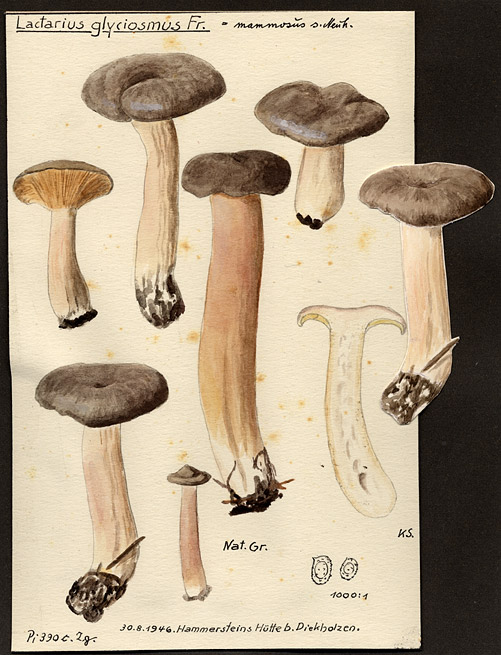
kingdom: Fungi
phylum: Basidiomycota
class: Agaricomycetes
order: Russulales
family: Russulaceae
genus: Lactarius
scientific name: Lactarius mammosus
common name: Pap milkcap
